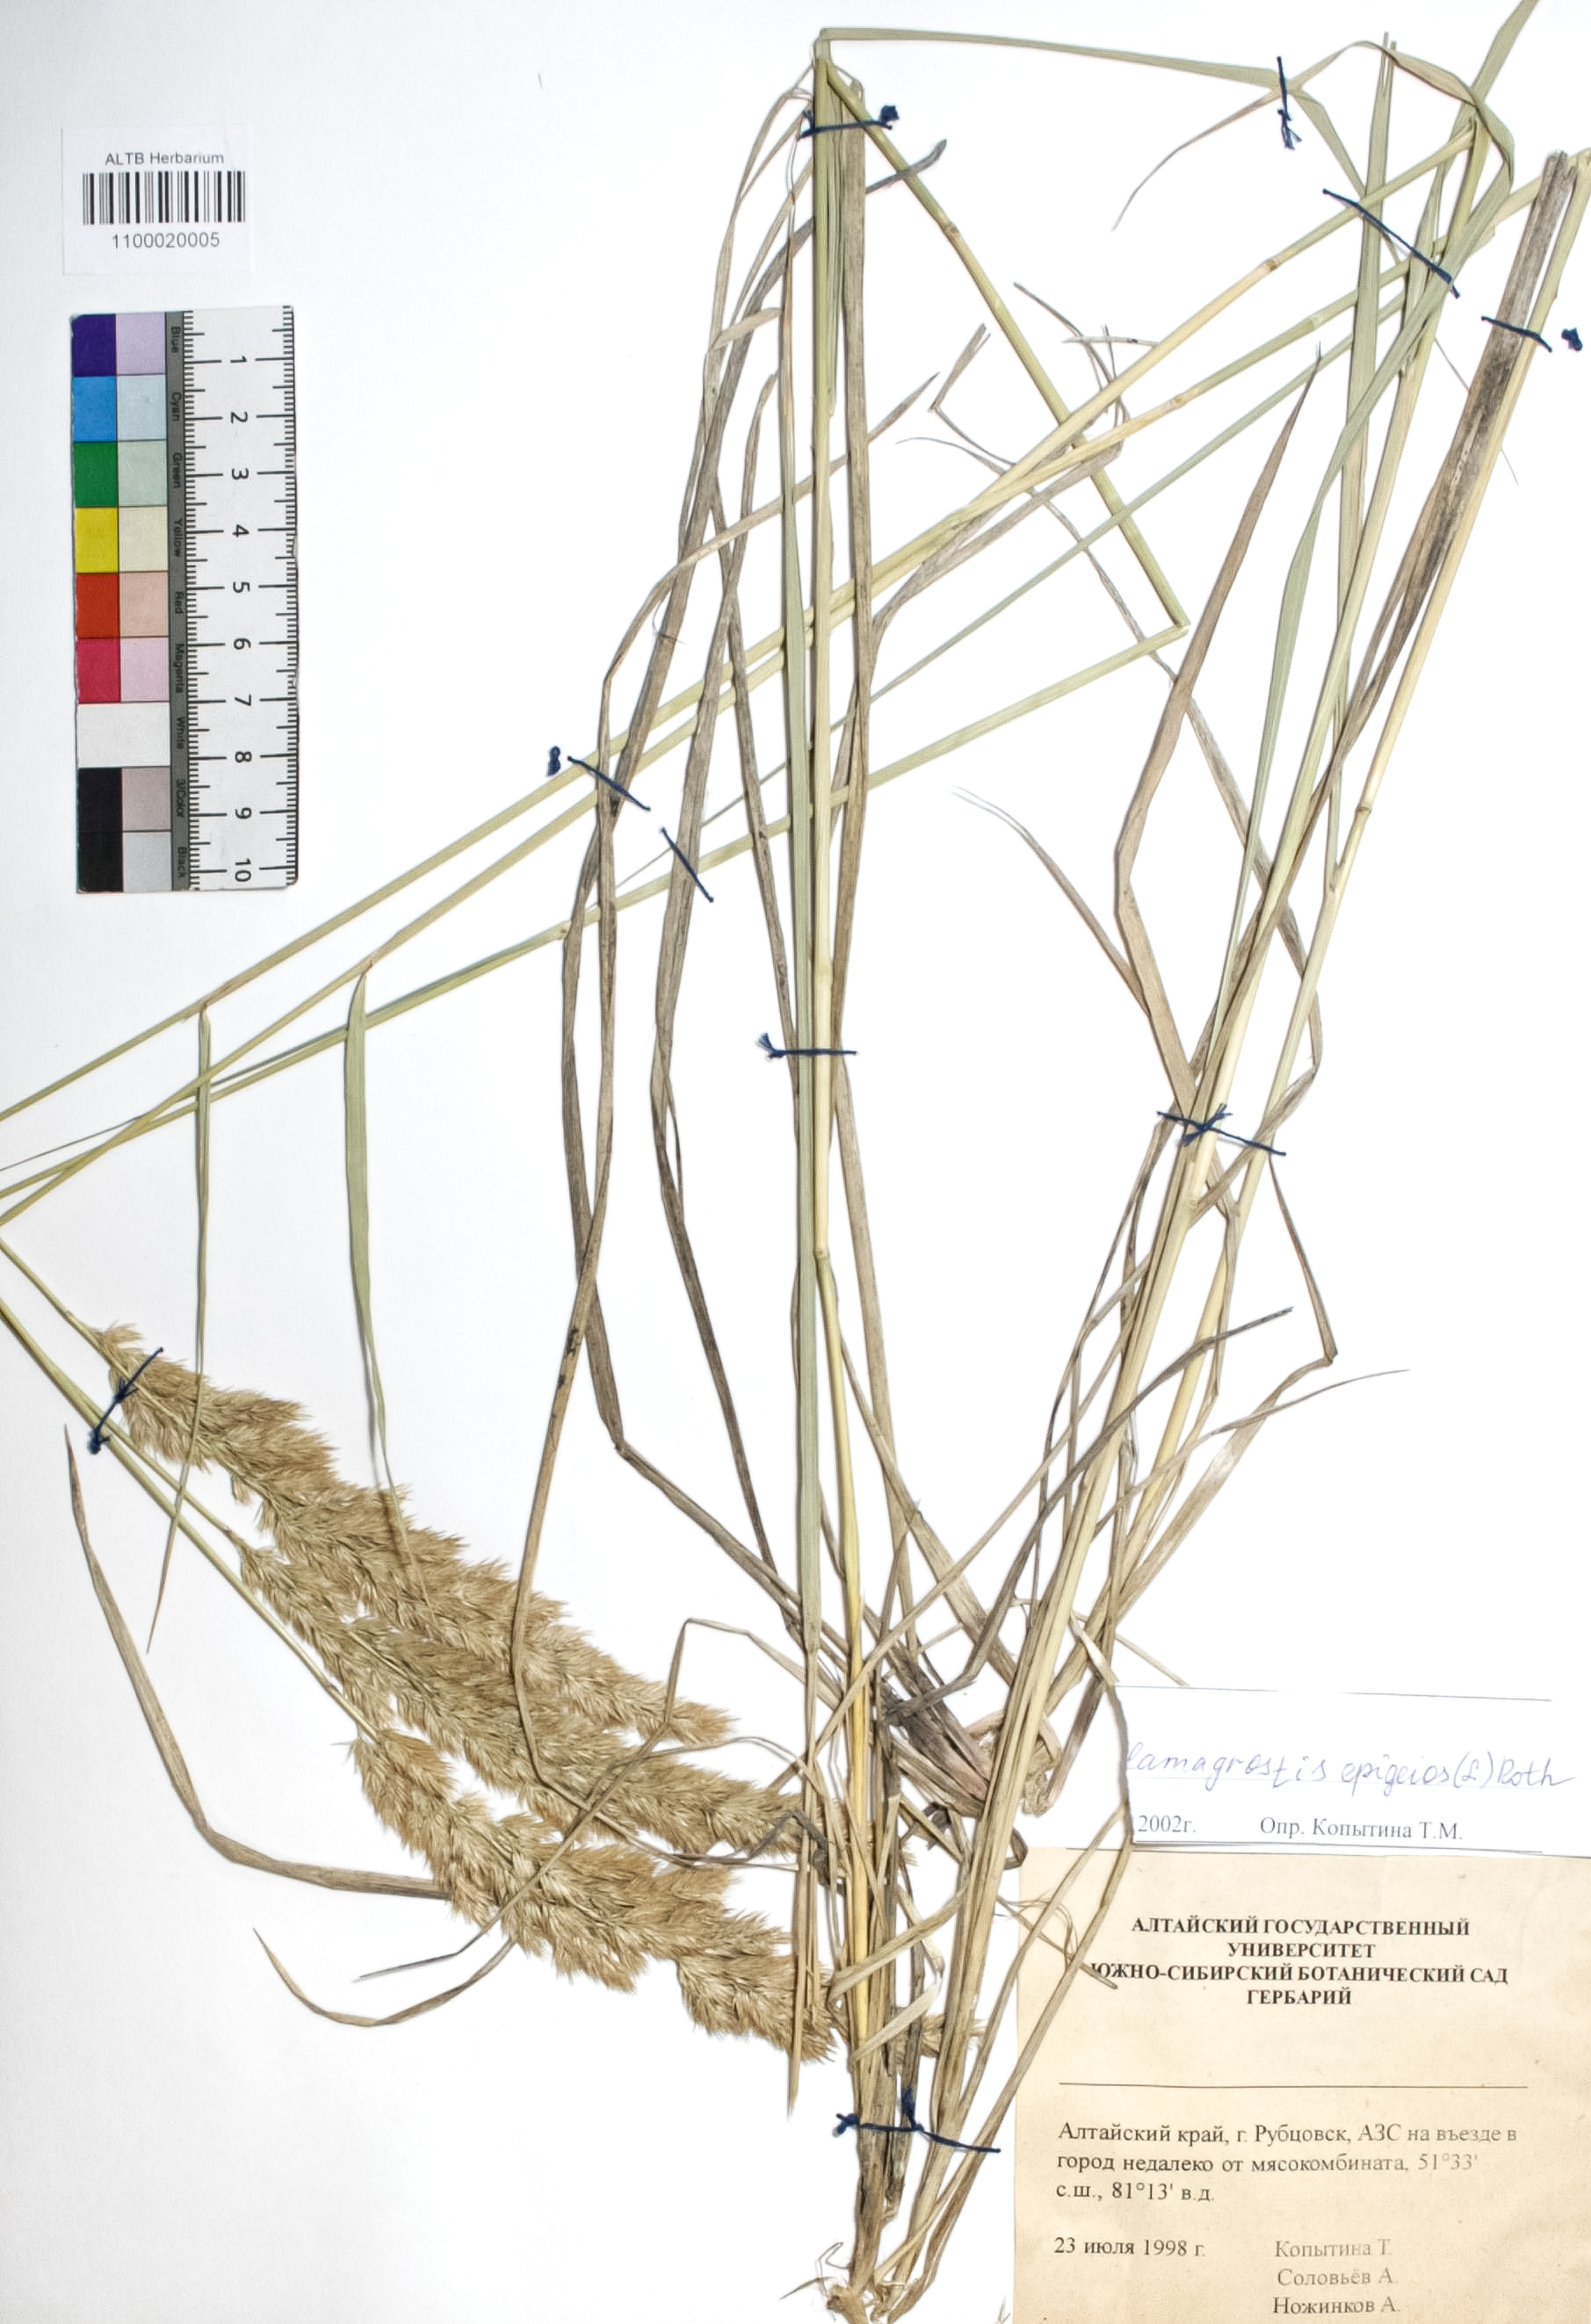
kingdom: Plantae
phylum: Tracheophyta
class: Liliopsida
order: Poales
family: Poaceae
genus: Calamagrostis
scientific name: Calamagrostis epigejos
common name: Wood small-reed
